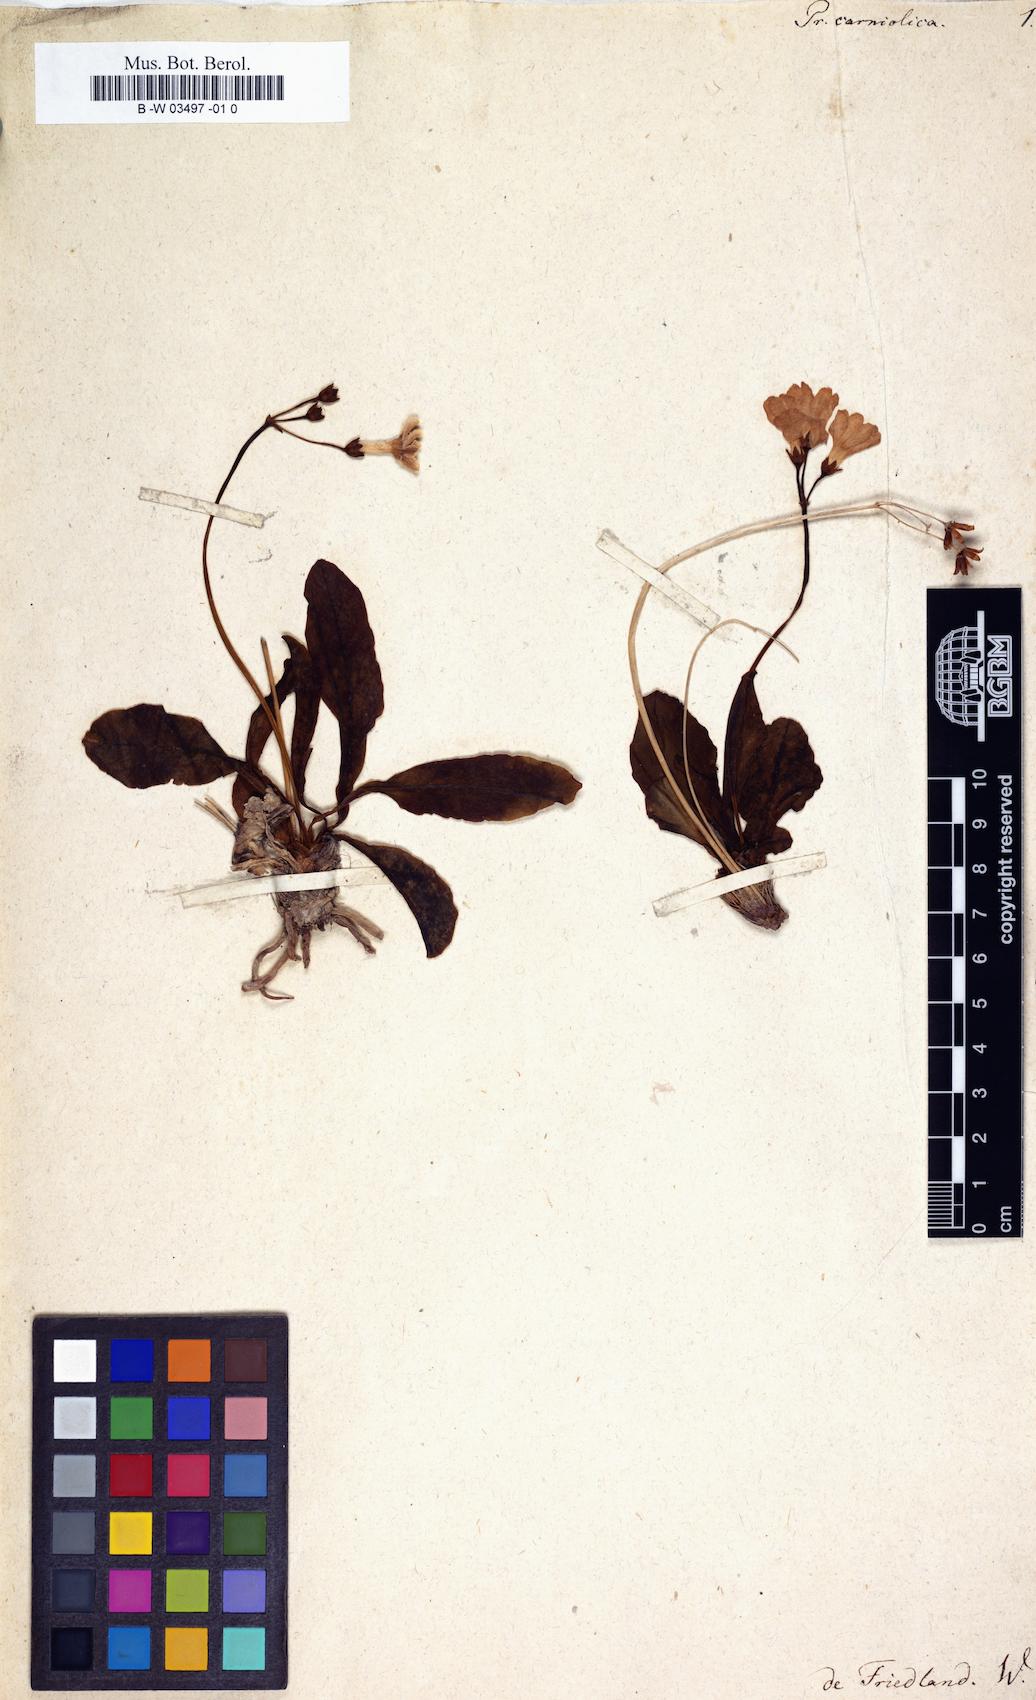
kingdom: Plantae
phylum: Tracheophyta
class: Magnoliopsida
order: Ericales
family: Primulaceae
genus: Primula
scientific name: Primula carniolica
